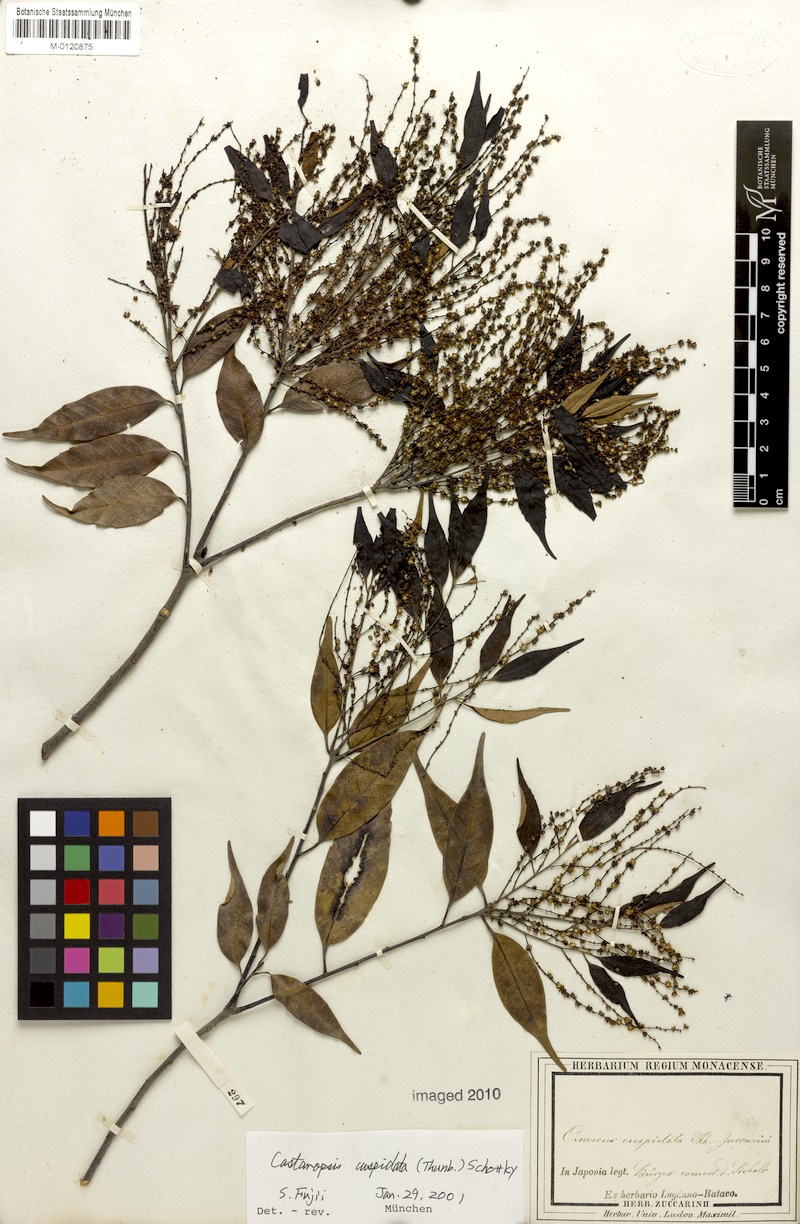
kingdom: Plantae
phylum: Tracheophyta
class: Magnoliopsida
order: Fagales
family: Fagaceae
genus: Castanopsis
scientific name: Castanopsis cuspidata
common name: Japanese chinquapin
